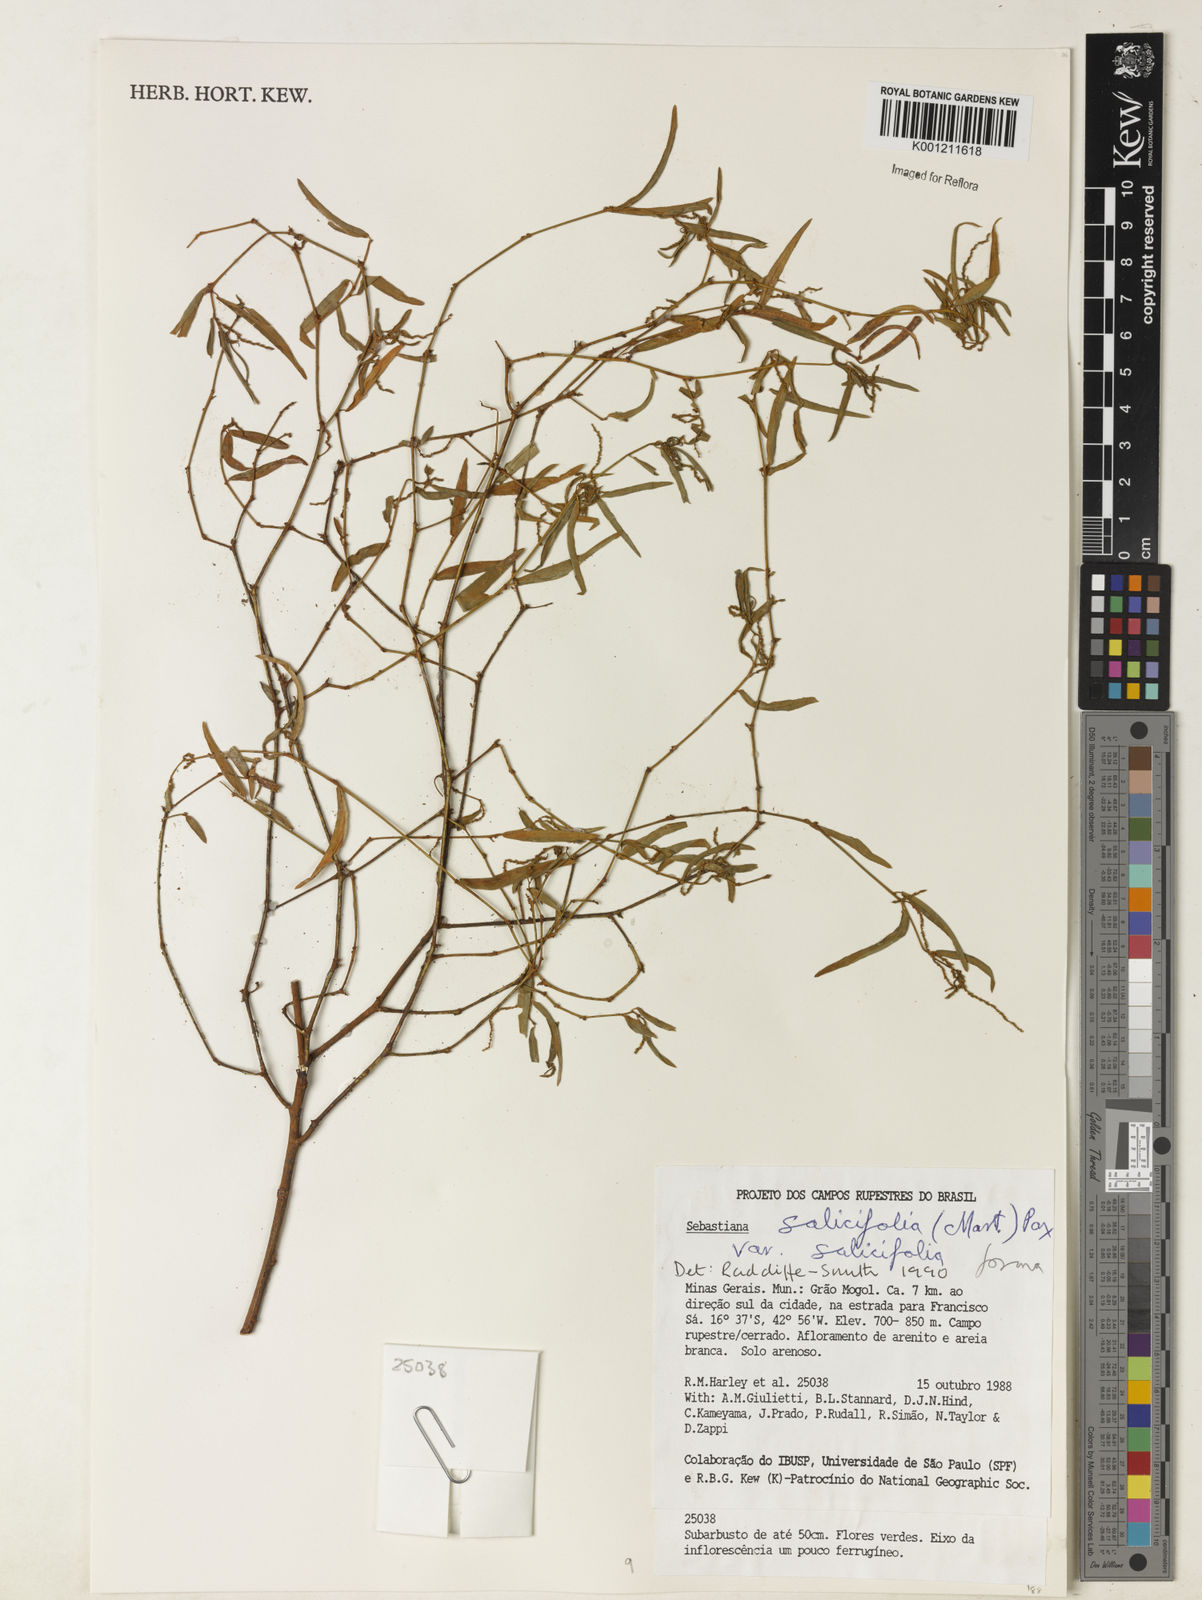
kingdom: Plantae
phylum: Tracheophyta
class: Magnoliopsida
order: Malpighiales
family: Euphorbiaceae
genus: Microstachys
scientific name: Microstachys
